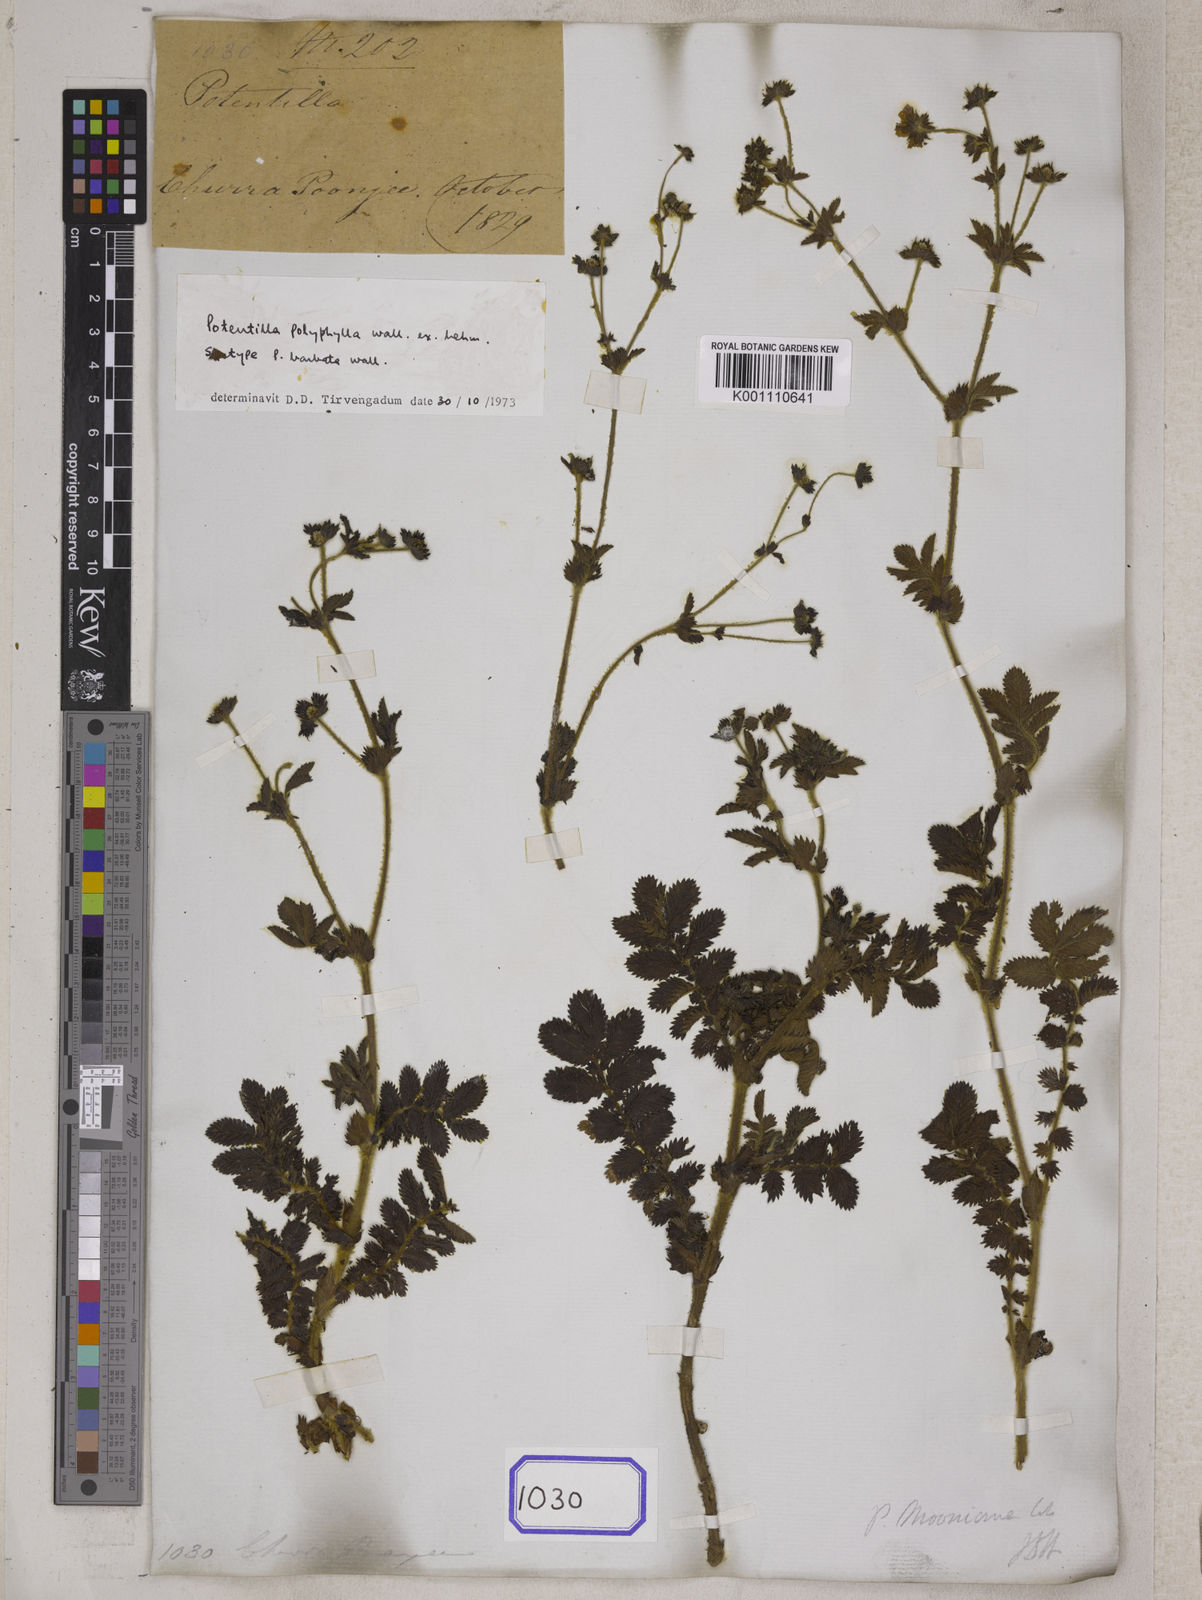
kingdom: Plantae
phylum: Tracheophyta
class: Magnoliopsida
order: Rosales
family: Rosaceae
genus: Argentina
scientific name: Argentina polyphylla
